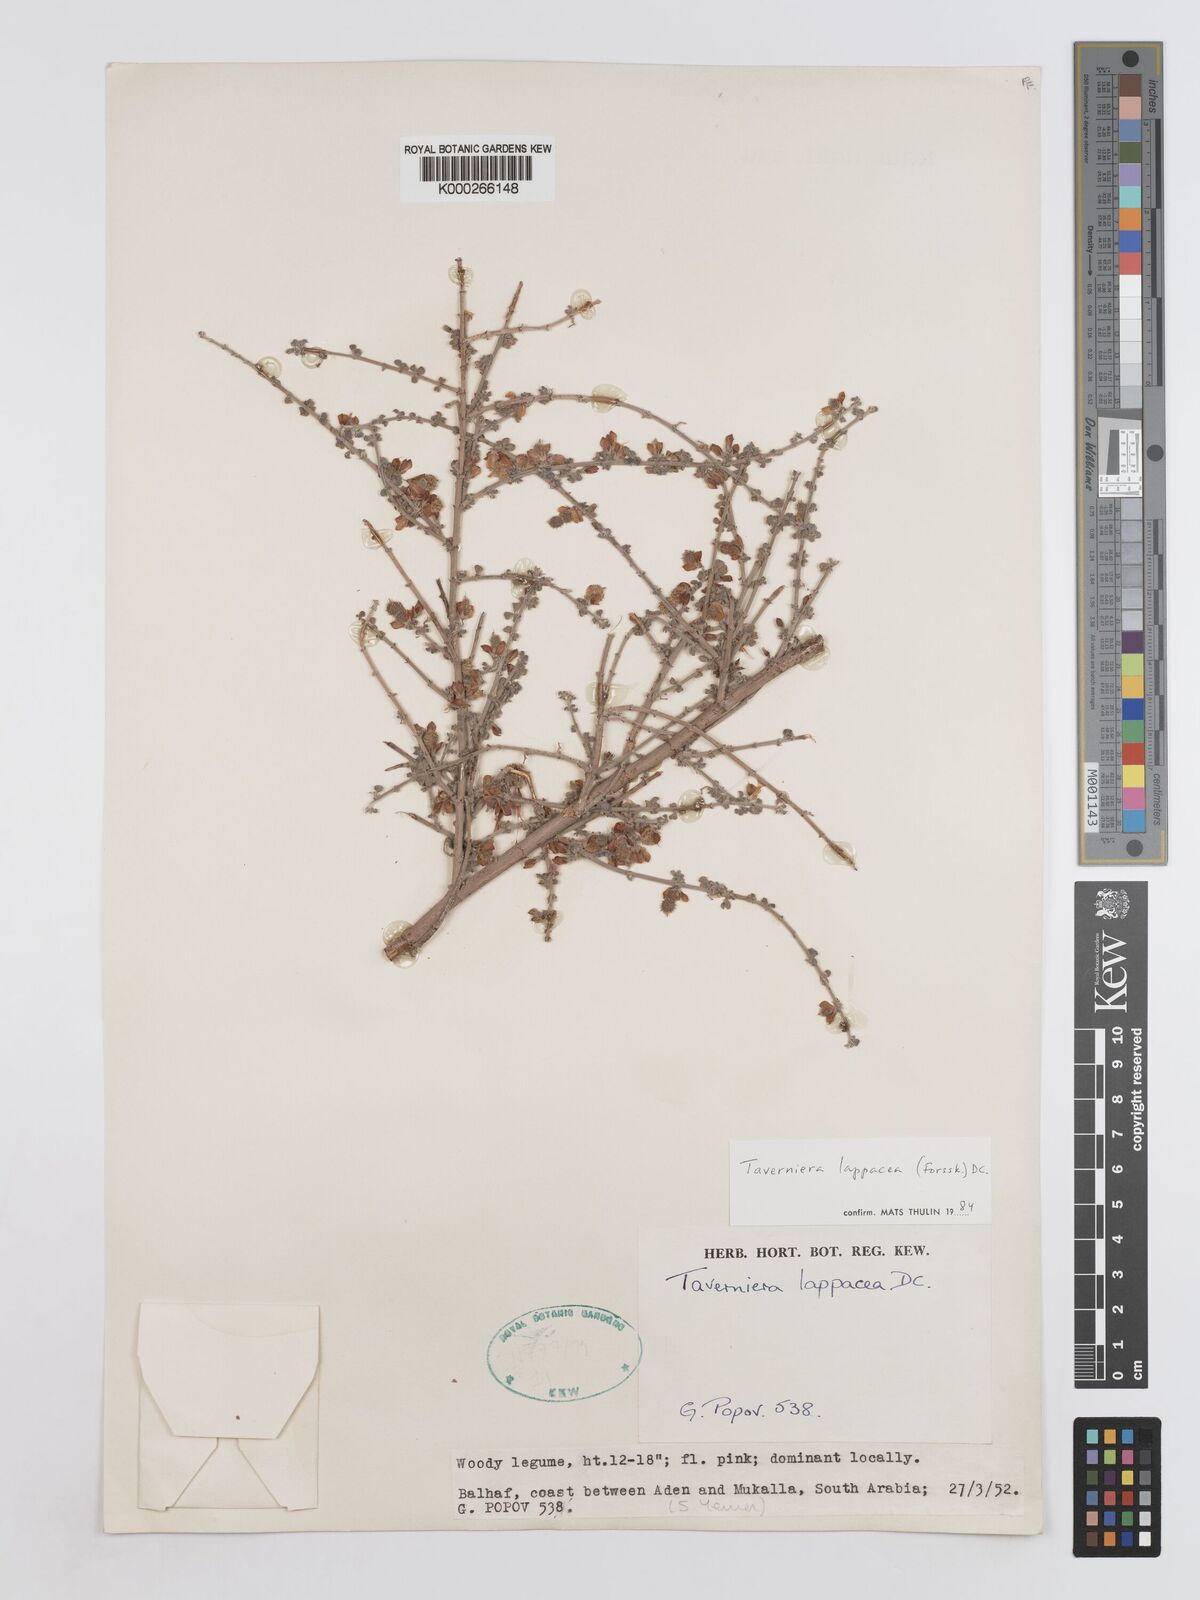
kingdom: Plantae
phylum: Tracheophyta
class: Magnoliopsida
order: Fabales
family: Fabaceae
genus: Taverniera
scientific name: Taverniera lappacea
